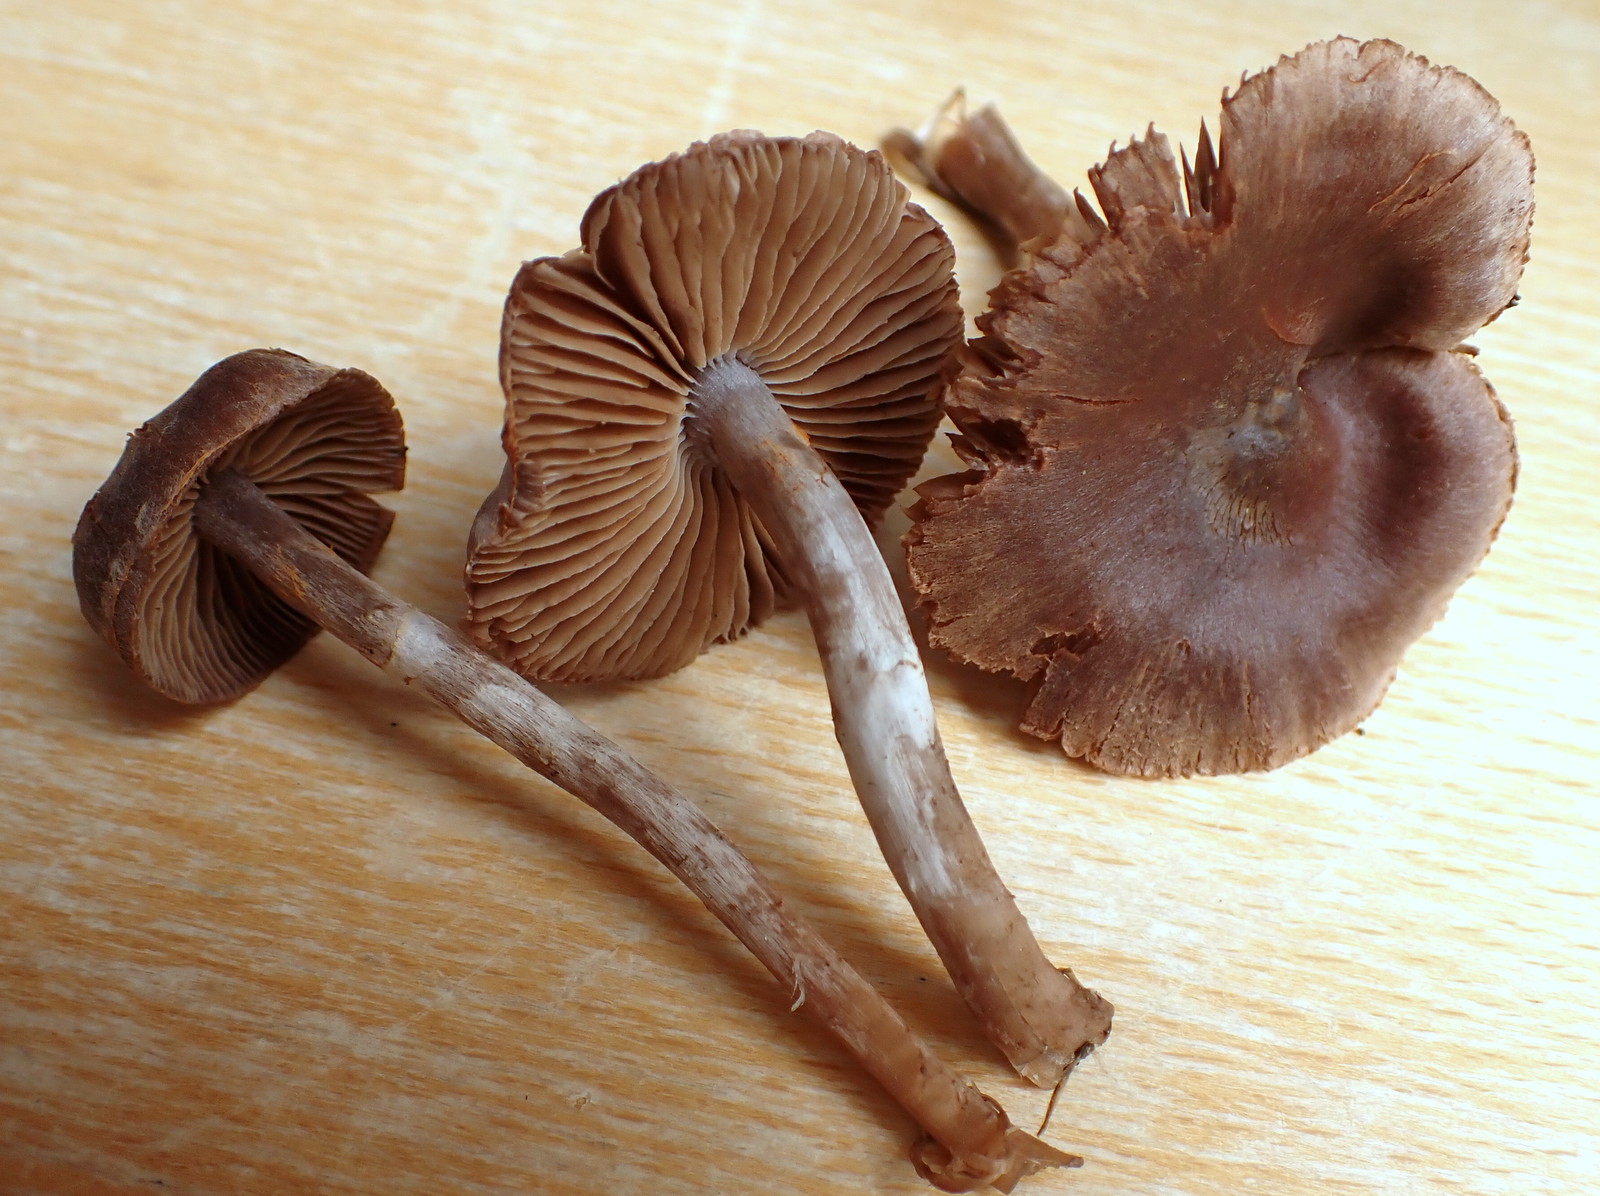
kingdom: Fungi
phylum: Basidiomycota
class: Agaricomycetes
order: Agaricales
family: Cortinariaceae
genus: Cortinarius
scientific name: Cortinarius
